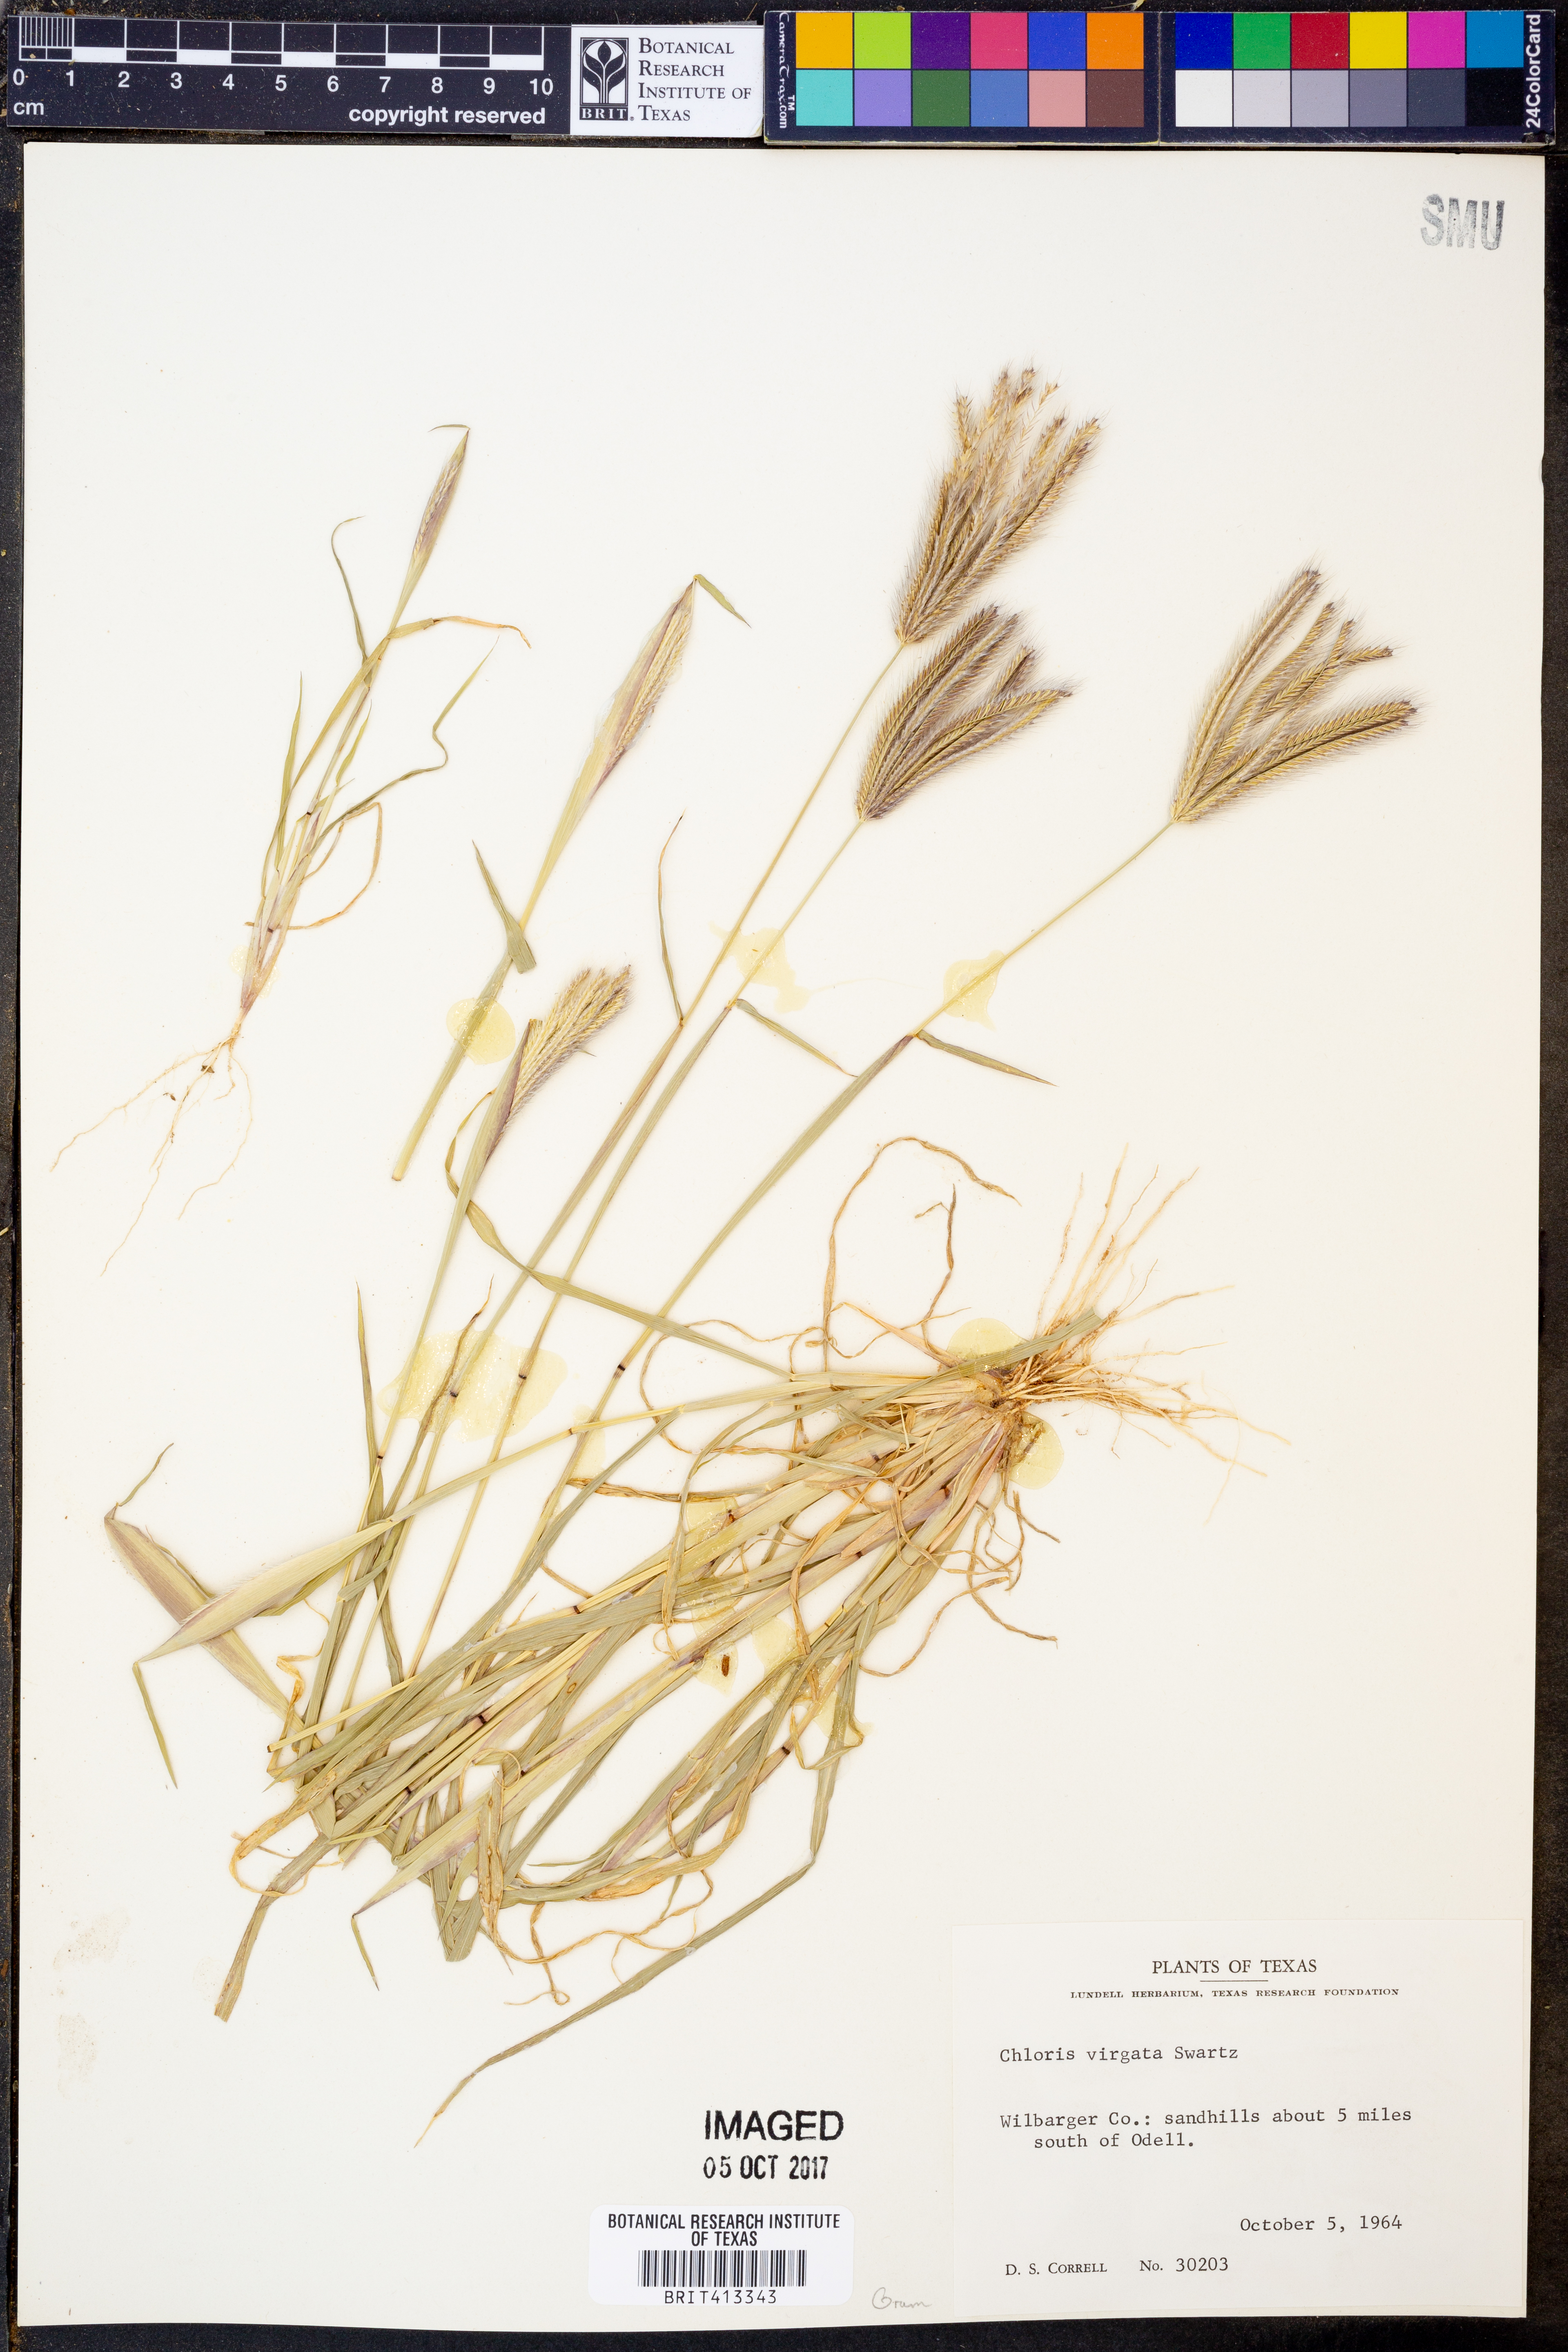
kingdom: Plantae
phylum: Tracheophyta
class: Liliopsida
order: Poales
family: Poaceae
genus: Chloris
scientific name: Chloris virgata
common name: Feathery rhodes-grass
